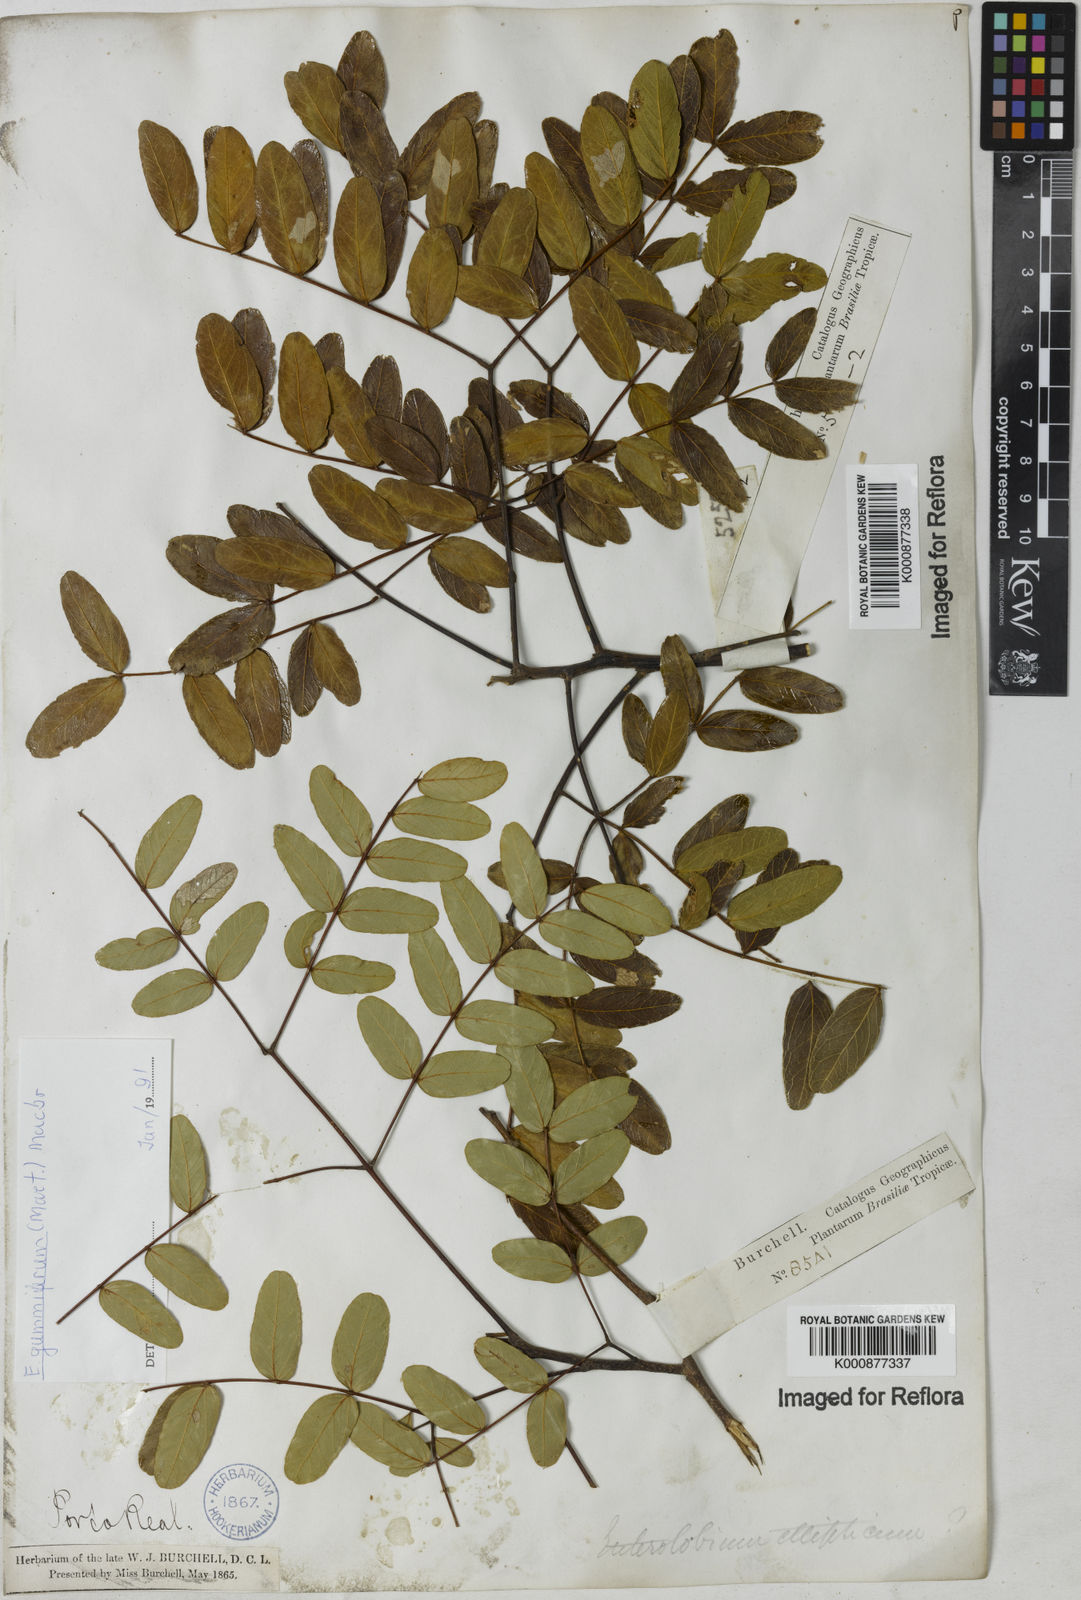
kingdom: Plantae
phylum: Tracheophyta
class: Magnoliopsida
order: Fabales
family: Fabaceae
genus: Enterolobium
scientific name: Enterolobium gummiferum
